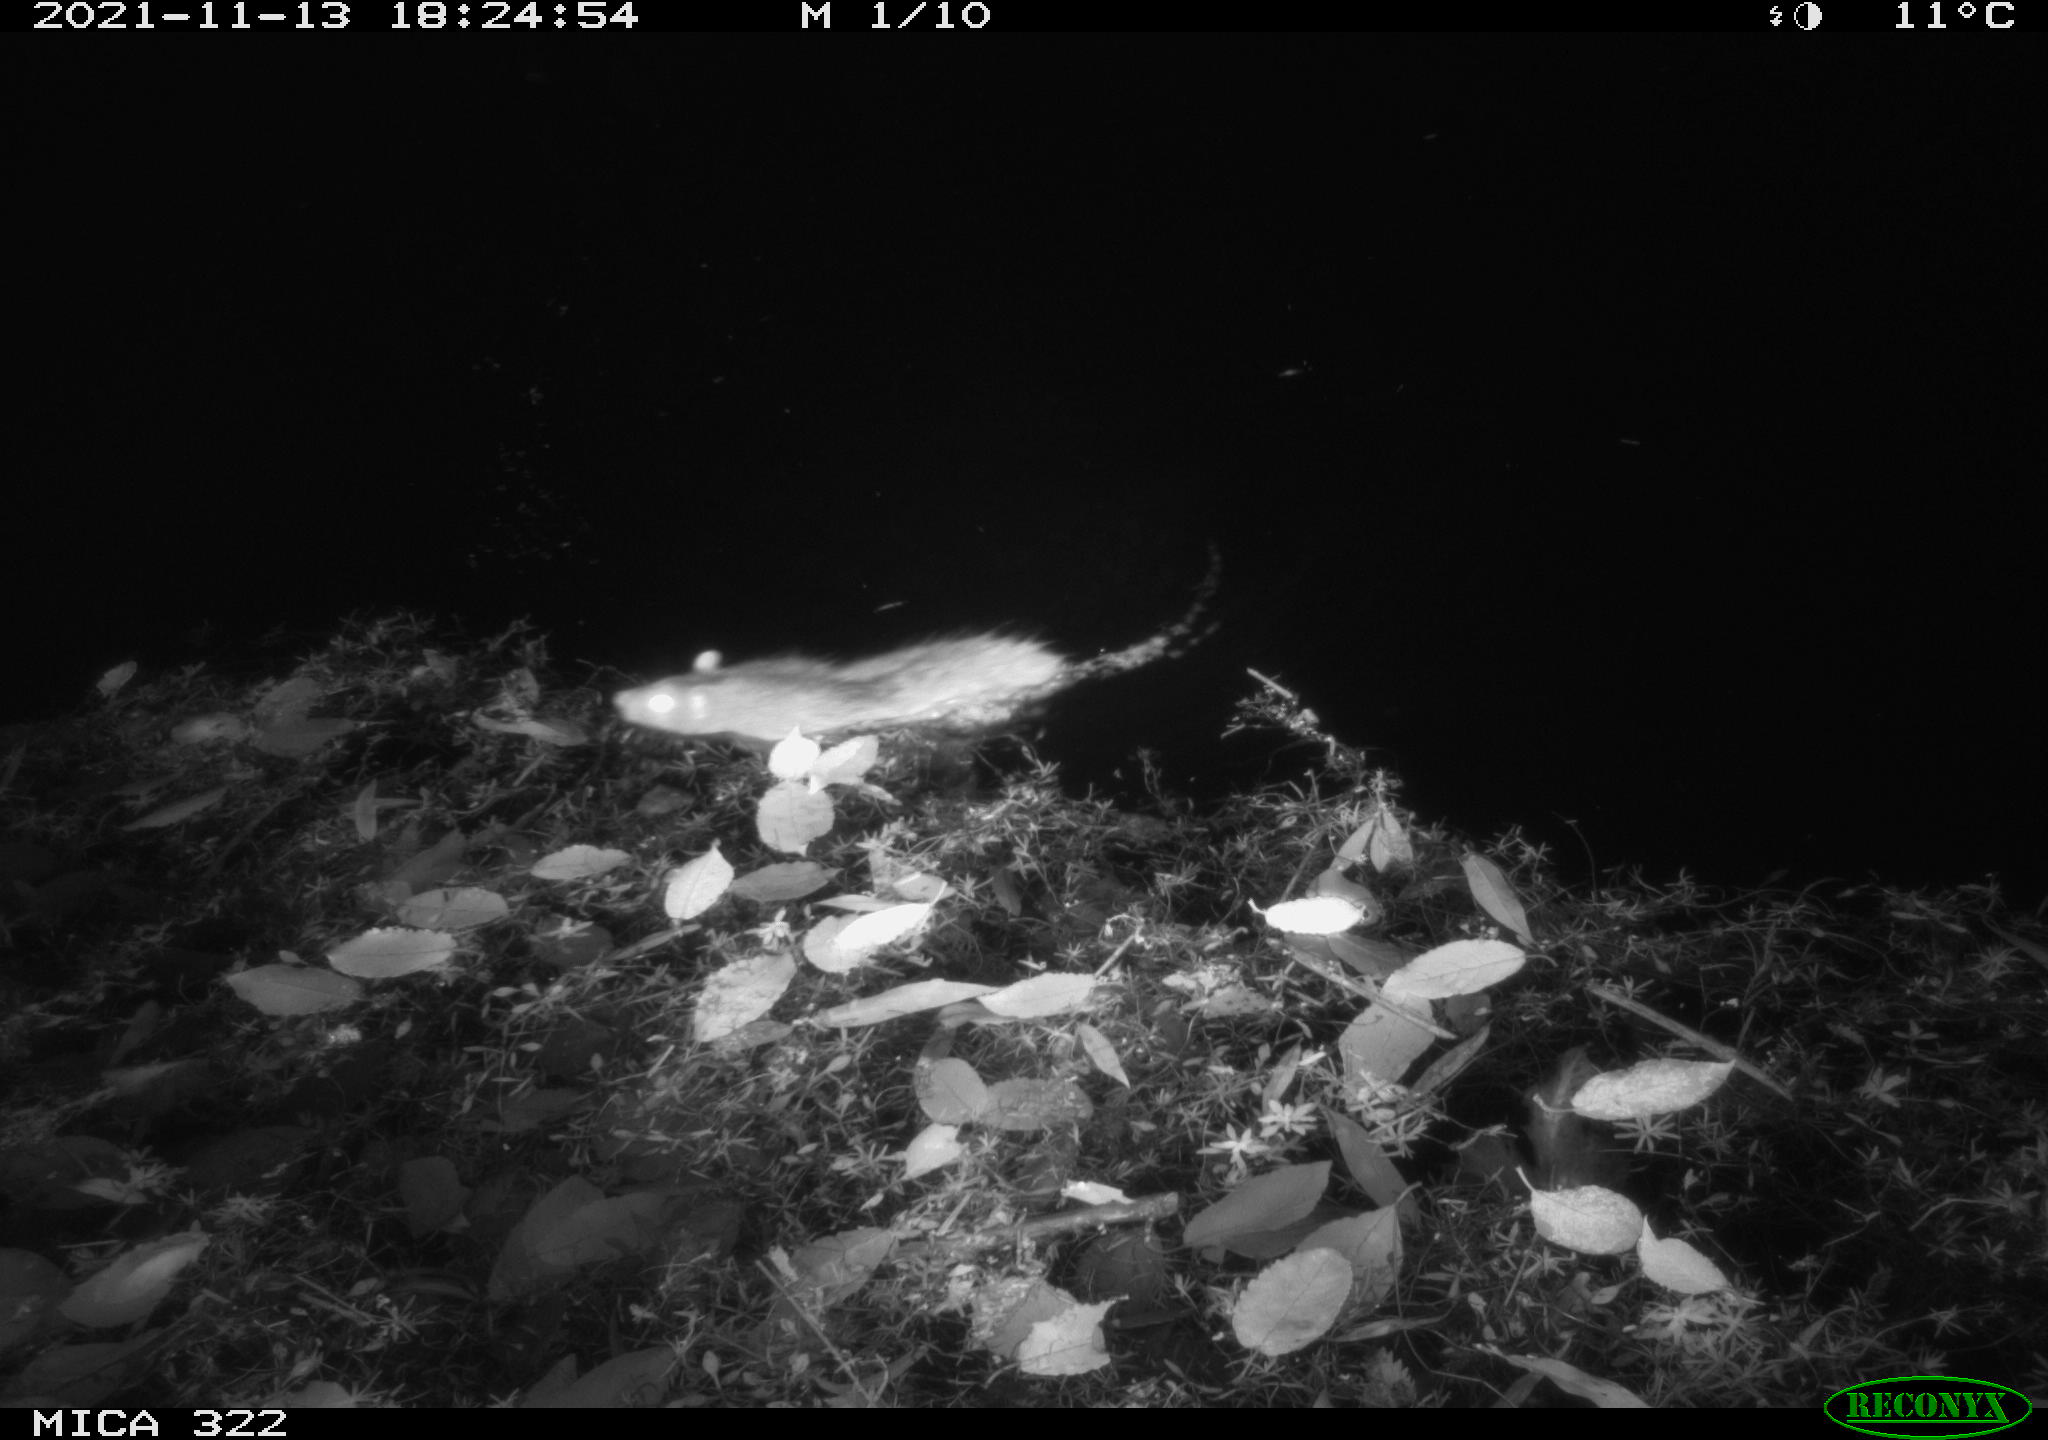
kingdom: Animalia
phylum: Chordata
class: Mammalia
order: Rodentia
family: Muridae
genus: Rattus
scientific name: Rattus norvegicus
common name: Brown rat
